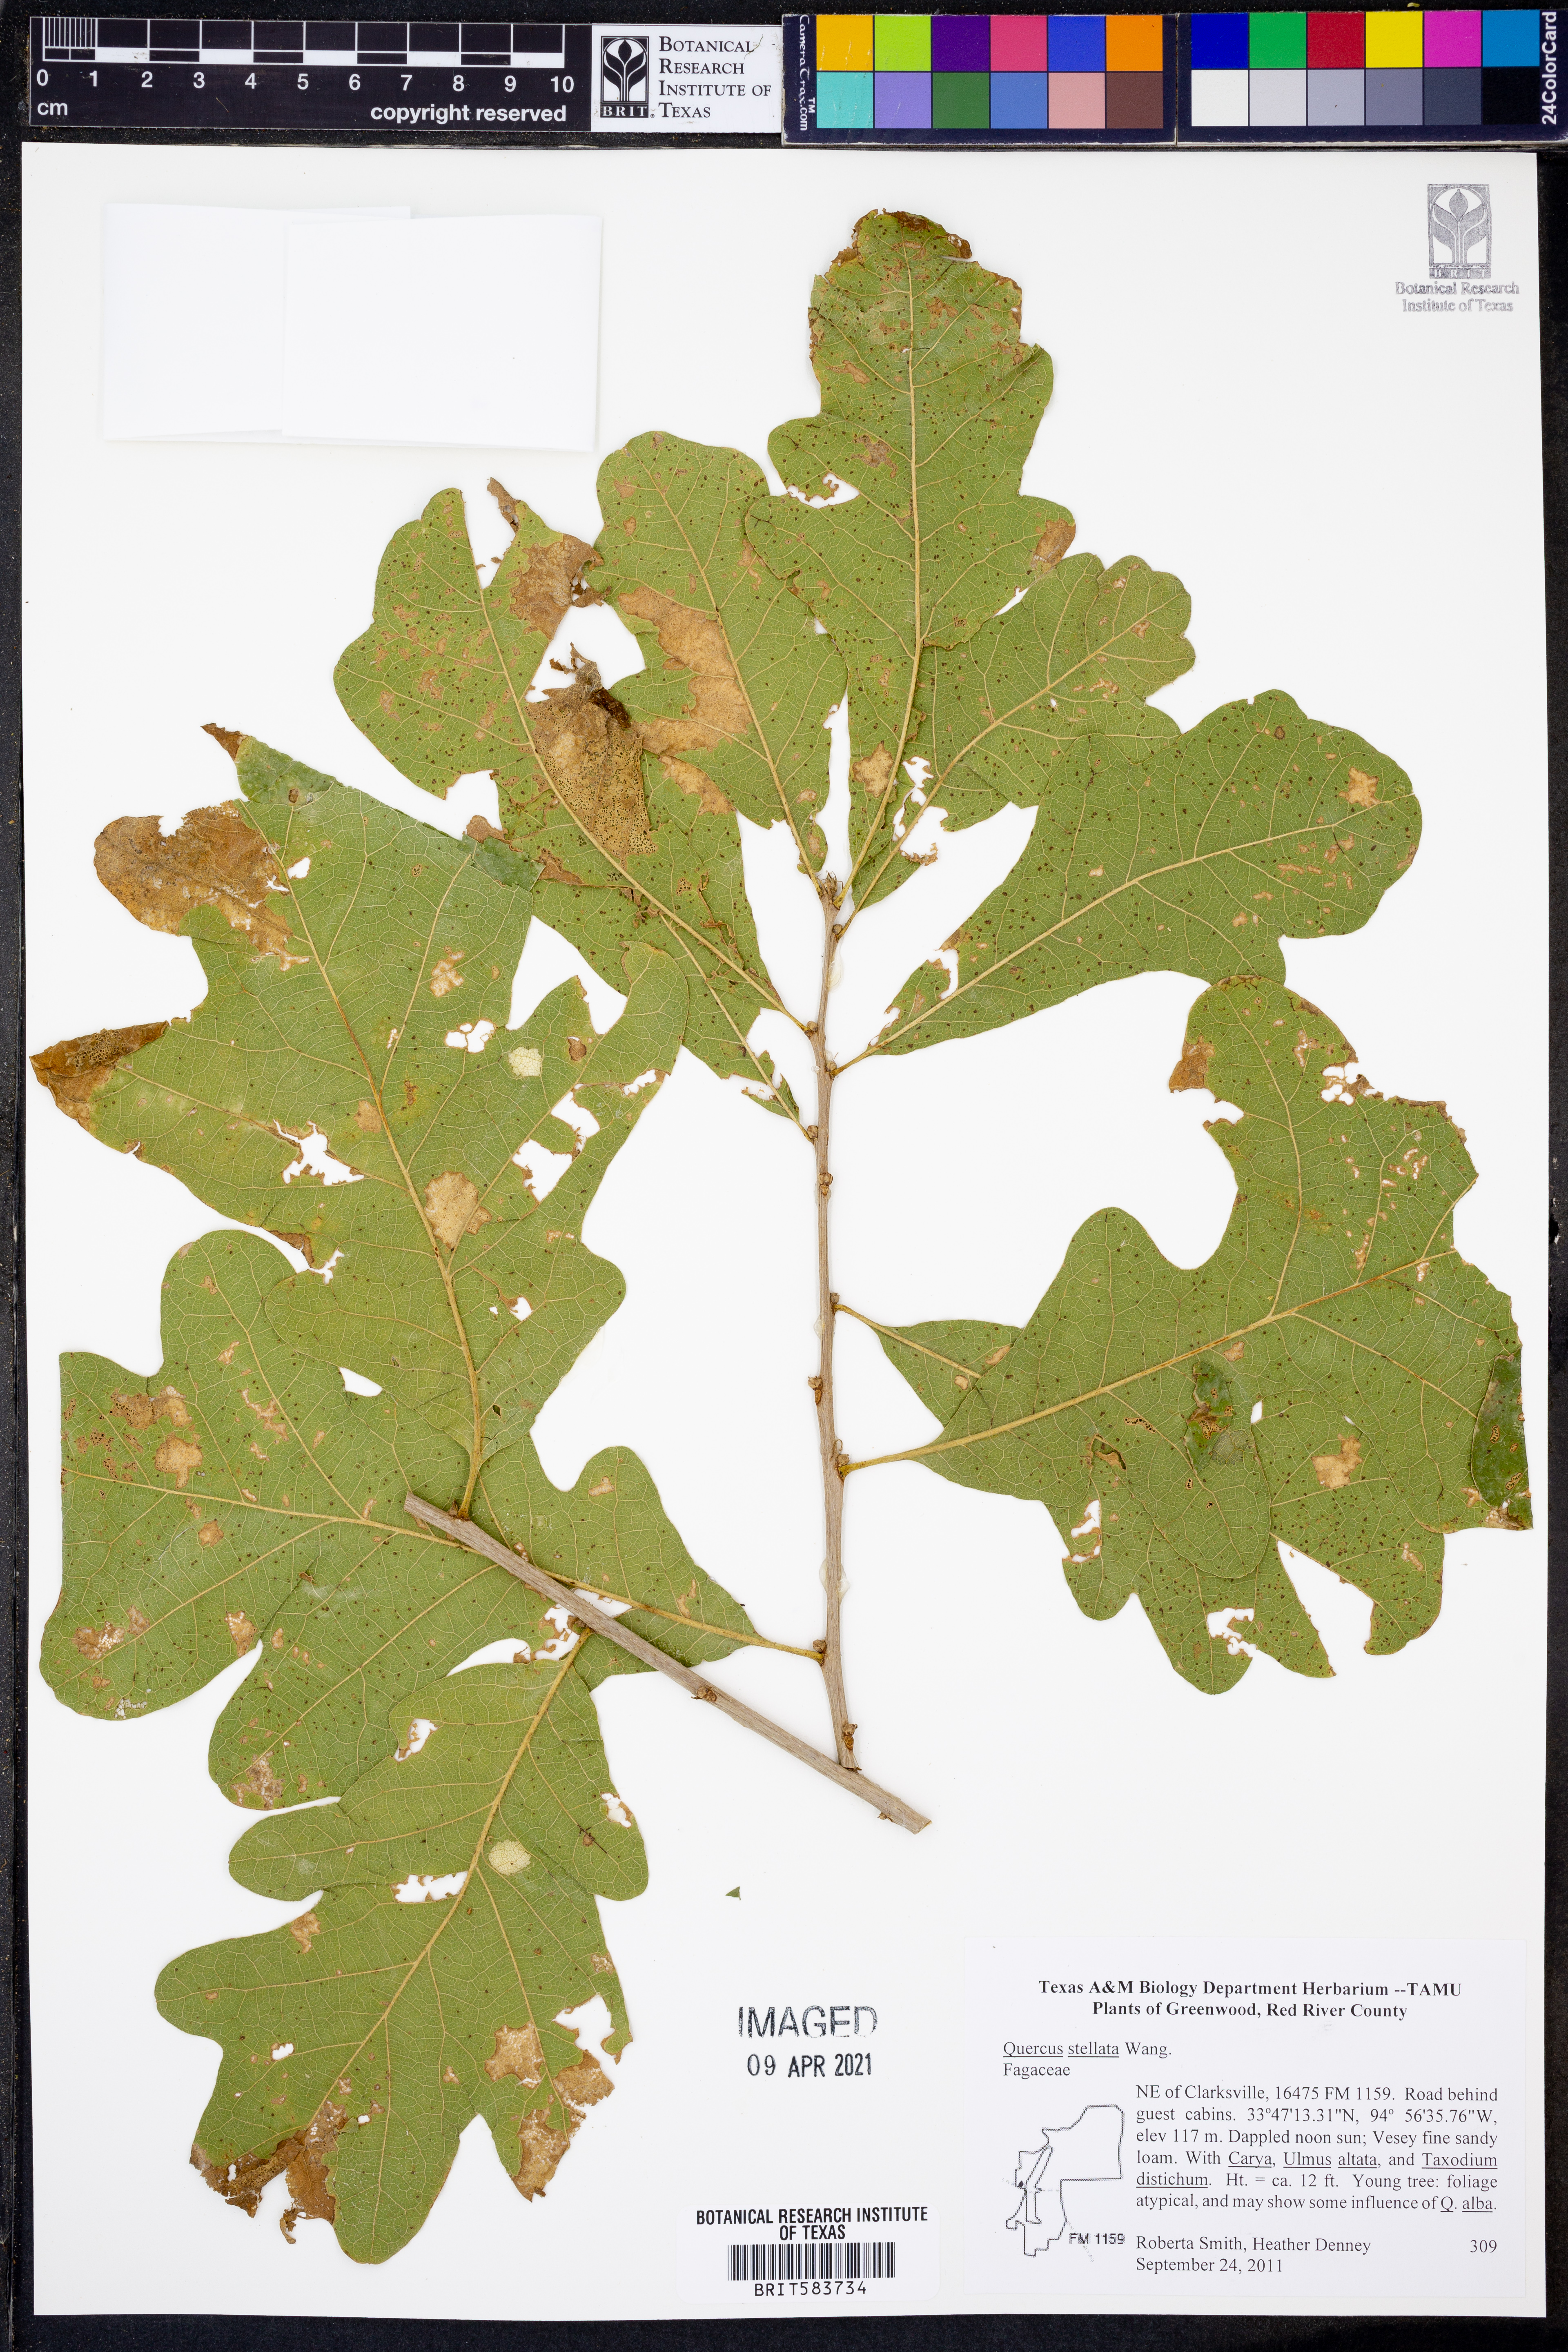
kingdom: Plantae
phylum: Tracheophyta
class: Magnoliopsida
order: Fagales
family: Fagaceae
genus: Quercus
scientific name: Quercus stellata
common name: Post oak
